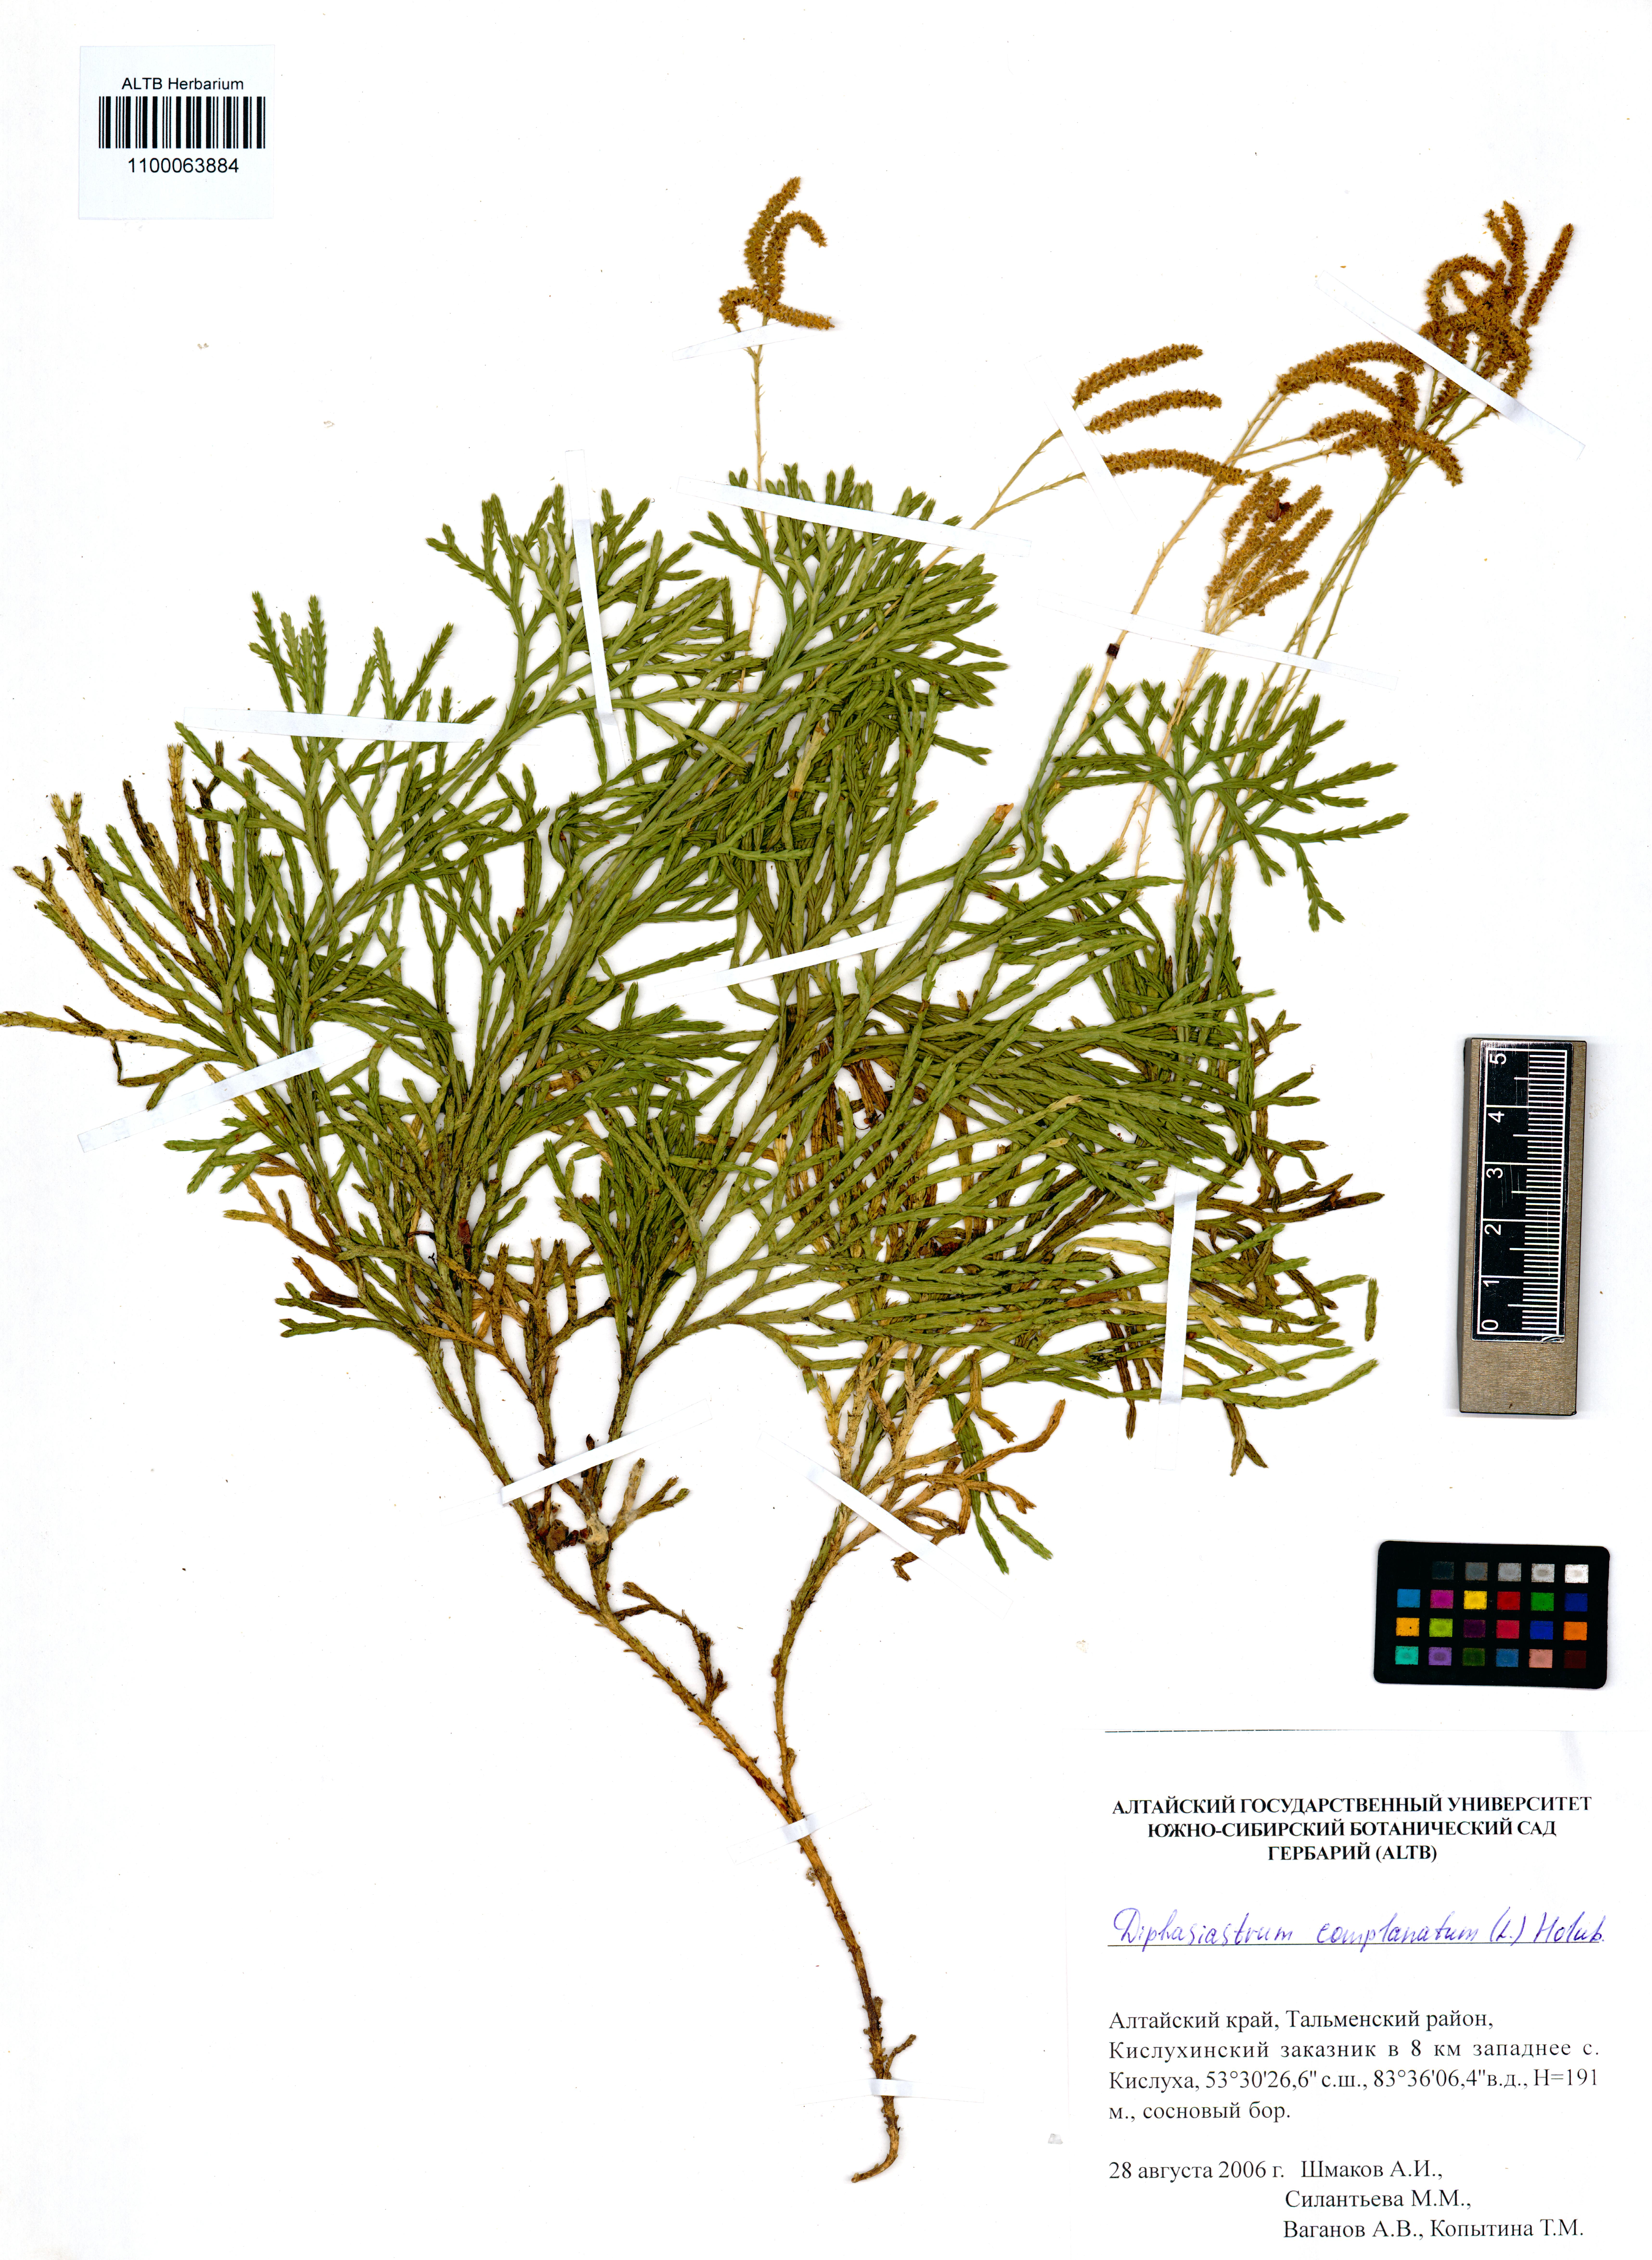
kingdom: Plantae
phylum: Tracheophyta
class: Lycopodiopsida
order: Lycopodiales
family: Lycopodiaceae
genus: Diphasiastrum
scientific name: Diphasiastrum complanatum
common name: Northern running-pine
